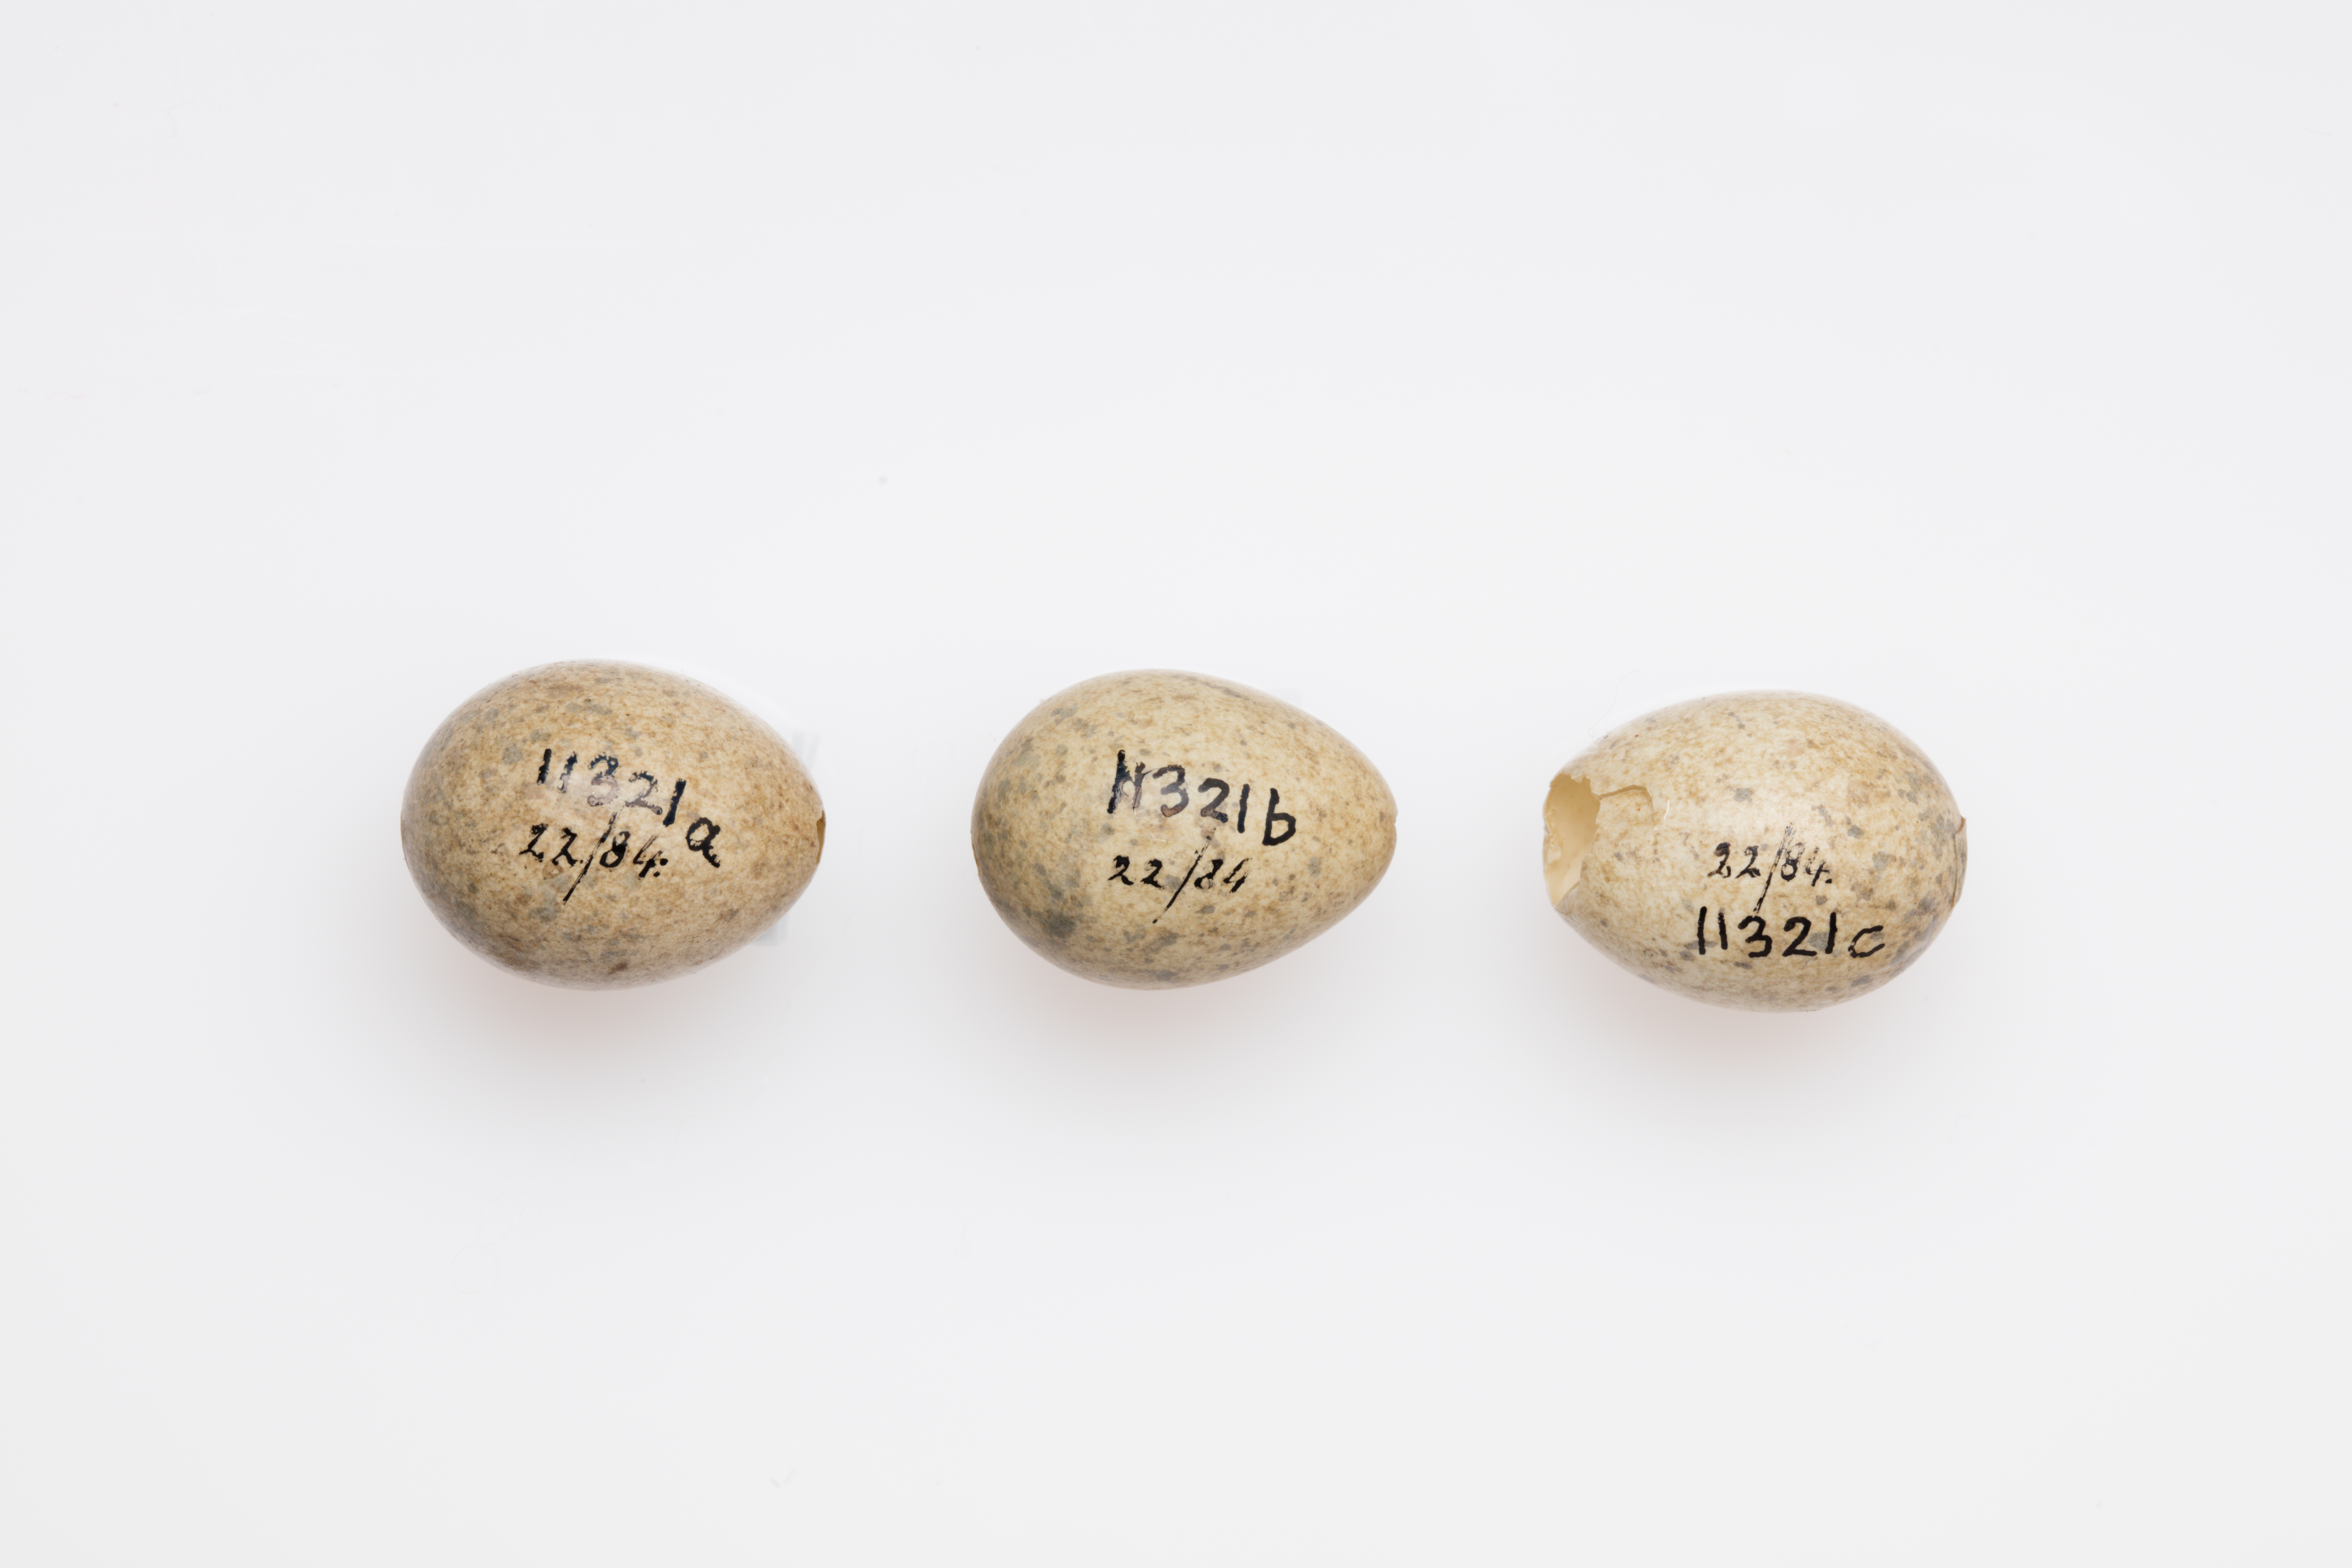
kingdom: Animalia
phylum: Chordata
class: Aves
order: Passeriformes
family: Sylviidae
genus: Sylvia
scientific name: Sylvia communis
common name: Common whitethroat
